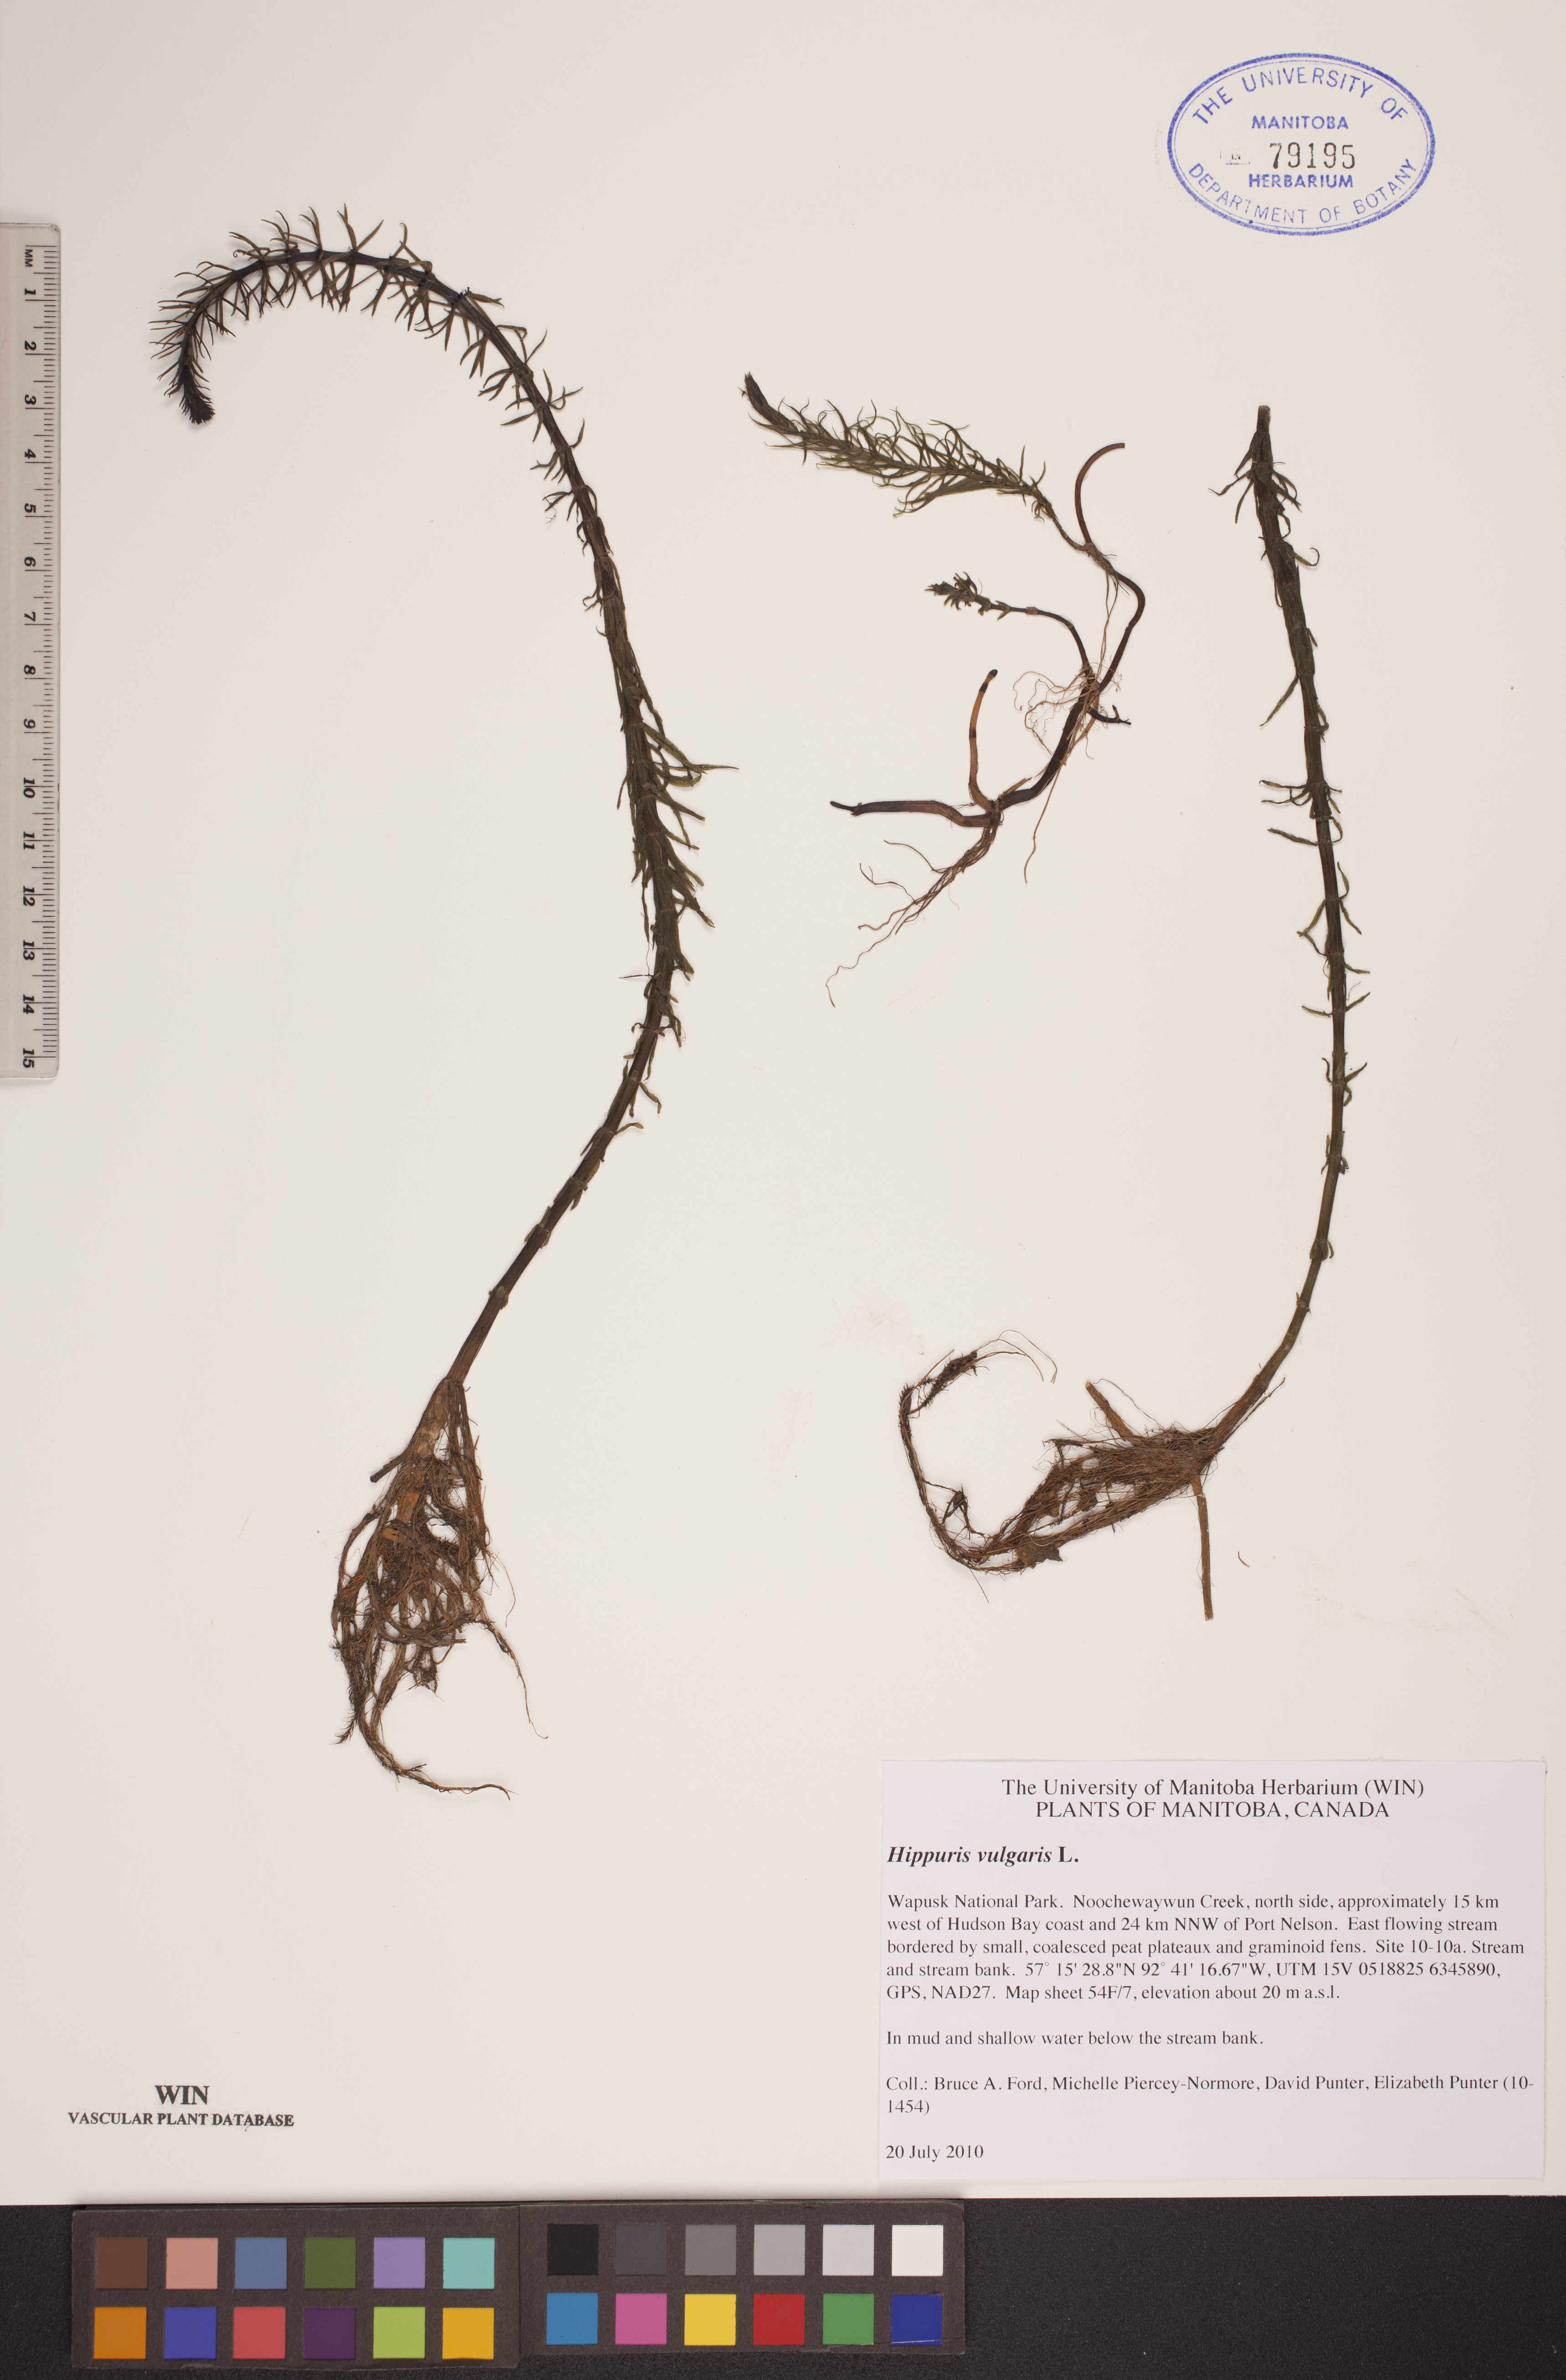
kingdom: Plantae
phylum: Tracheophyta
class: Magnoliopsida
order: Lamiales
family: Plantaginaceae
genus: Hippuris
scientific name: Hippuris vulgaris
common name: Mare's-tail
